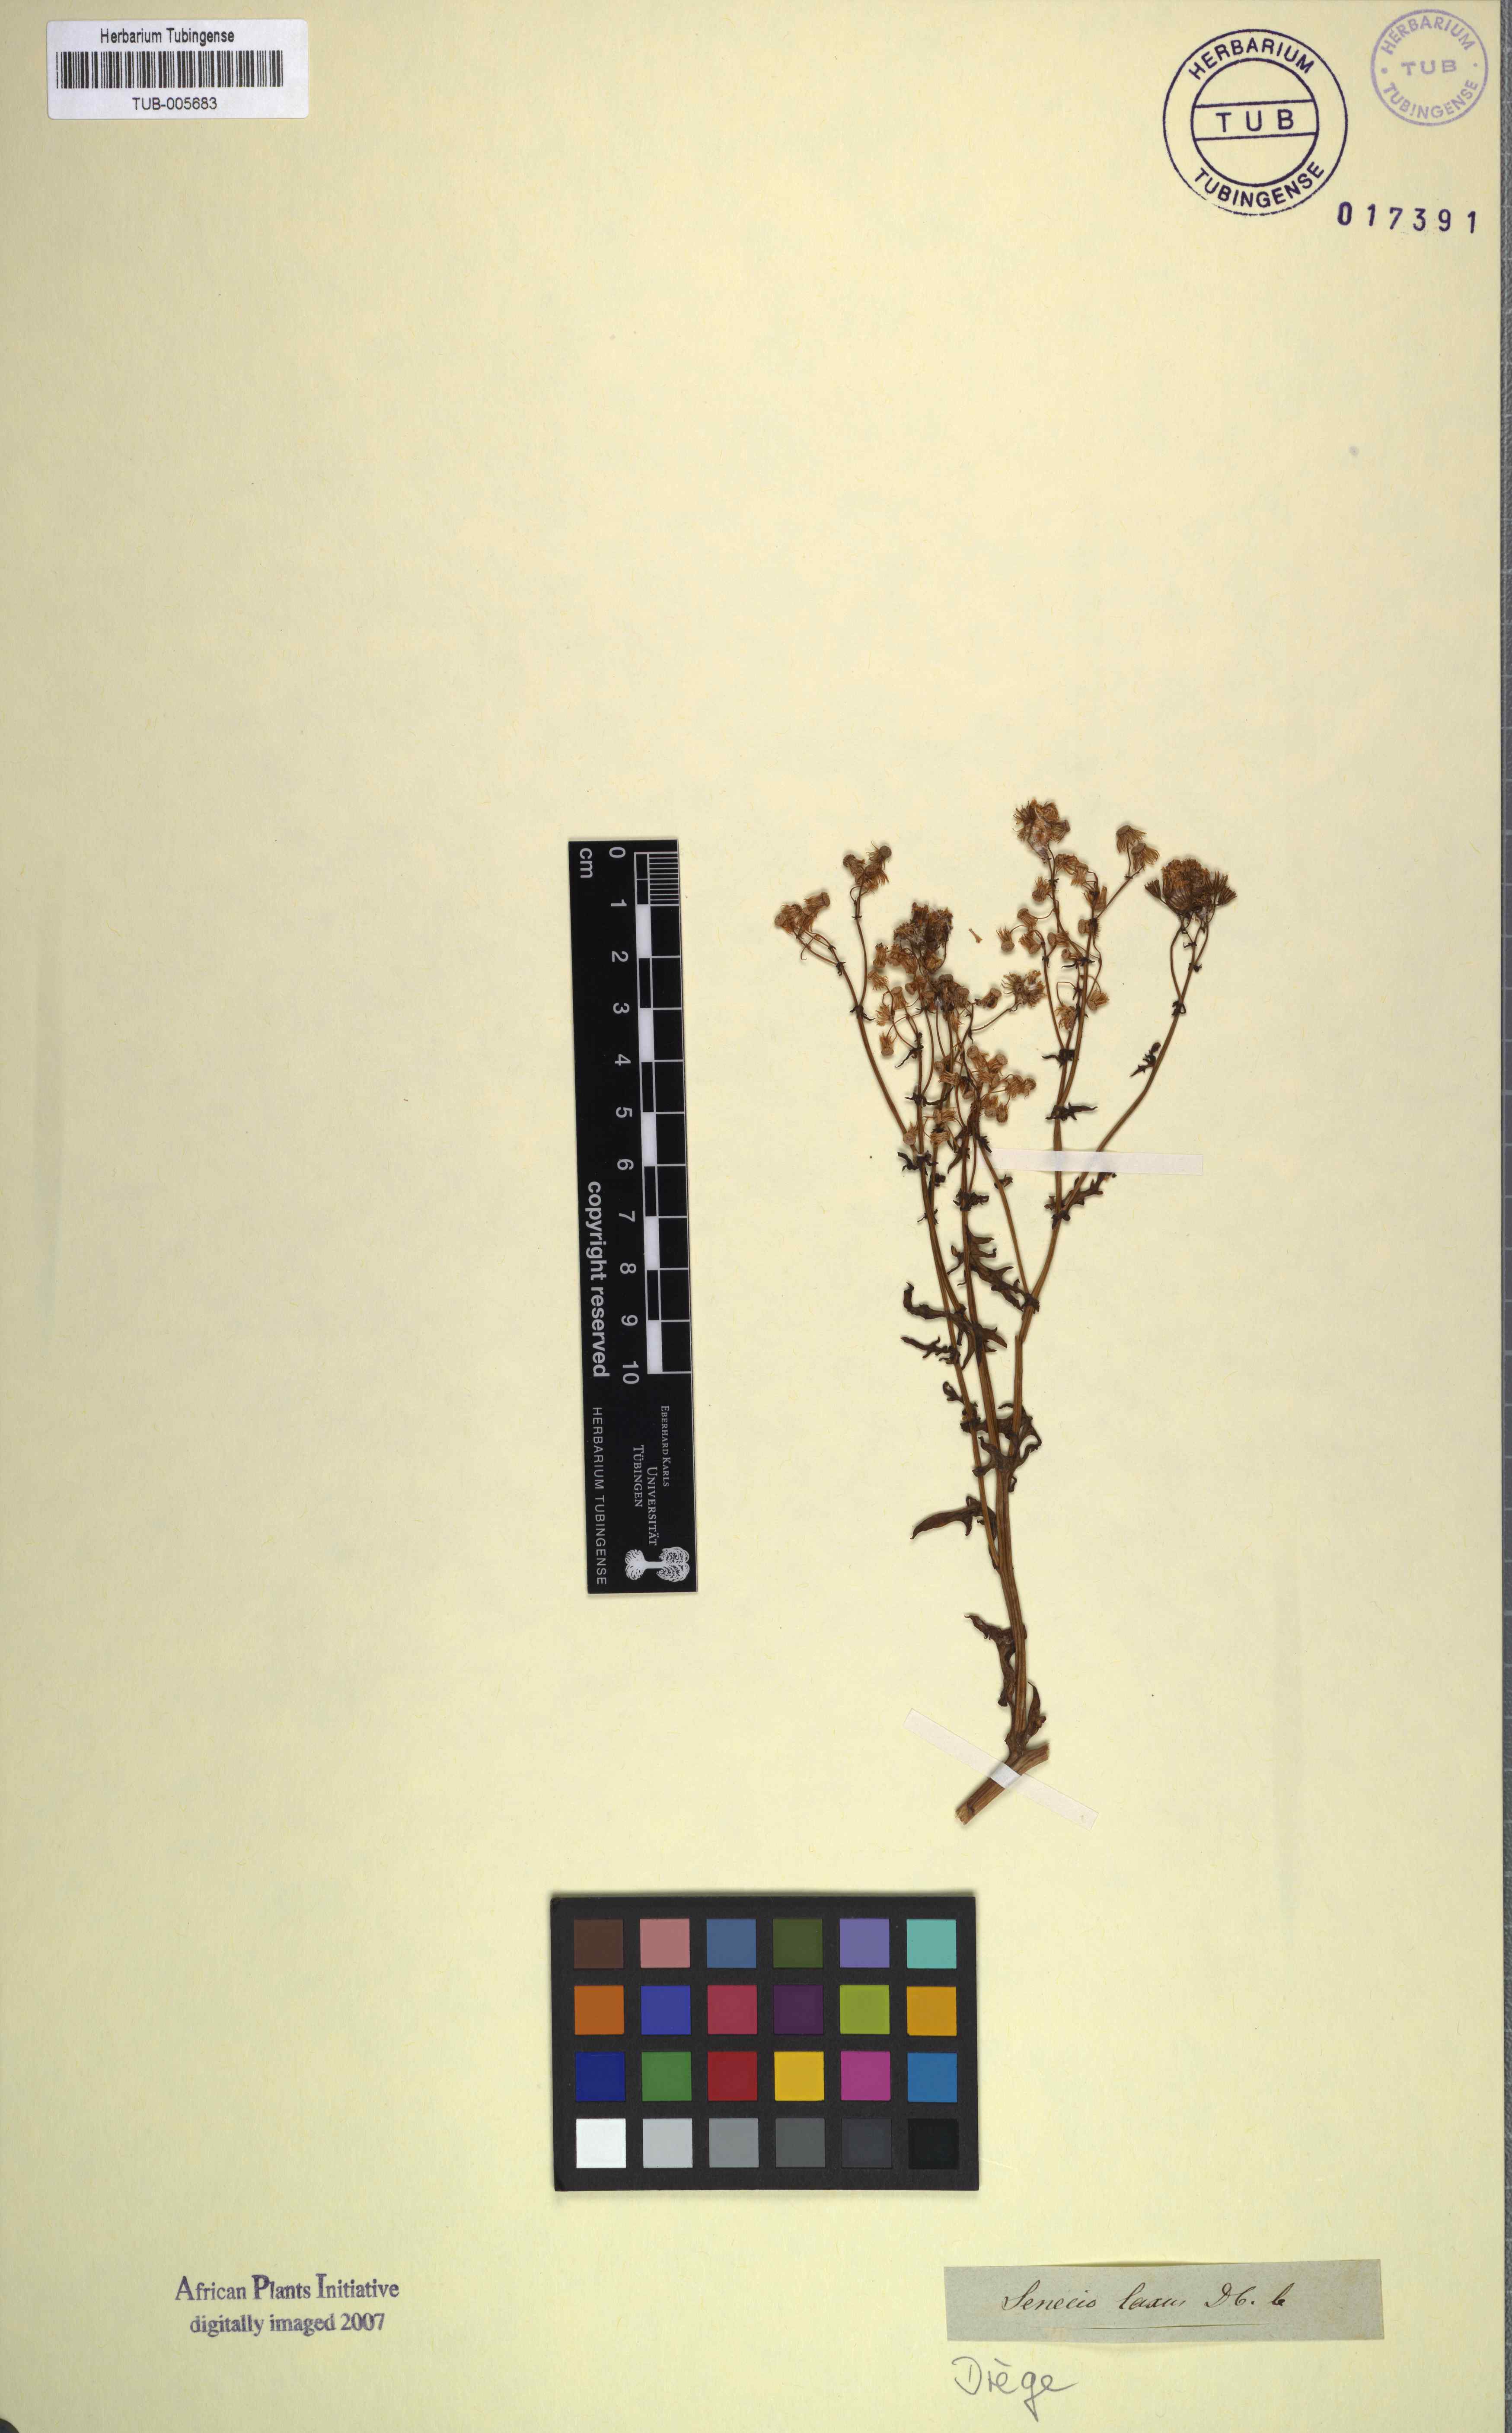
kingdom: Plantae
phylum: Tracheophyta
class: Magnoliopsida
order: Asterales
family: Asteraceae
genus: Senecio
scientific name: Senecio laxus
